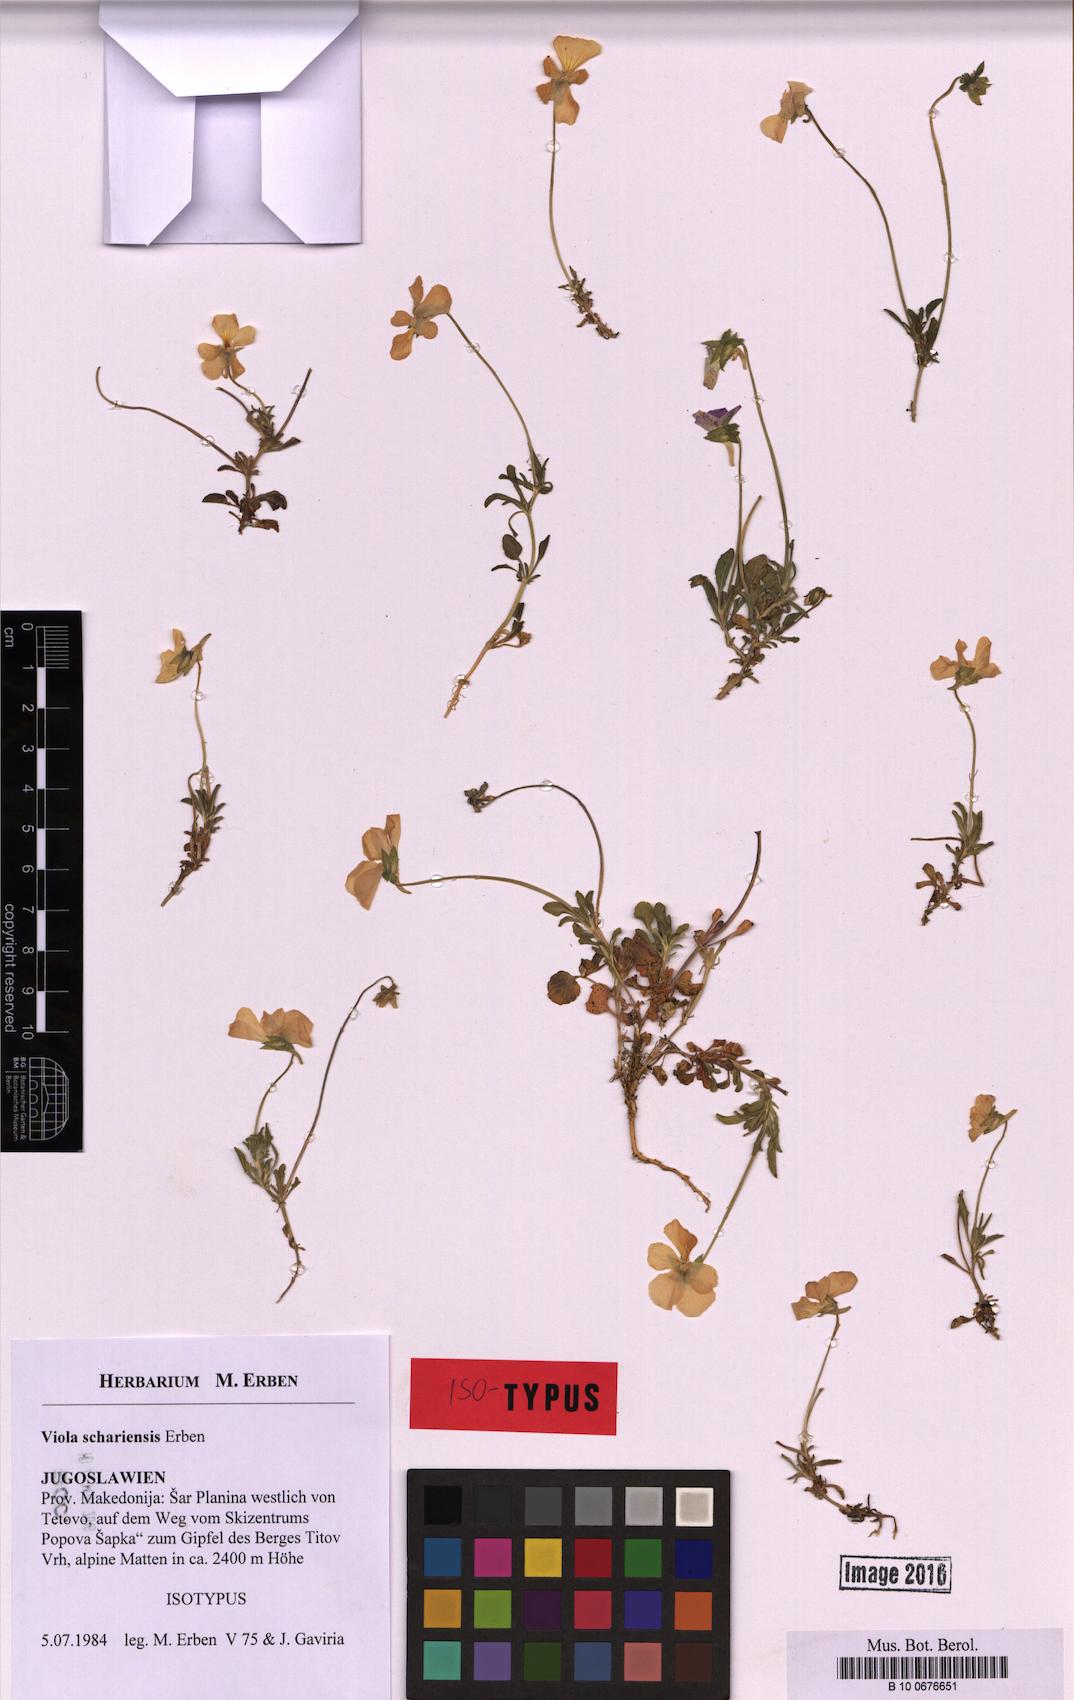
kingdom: Plantae
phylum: Tracheophyta
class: Magnoliopsida
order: Malpighiales
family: Violaceae
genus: Viola
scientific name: Viola schariensis
